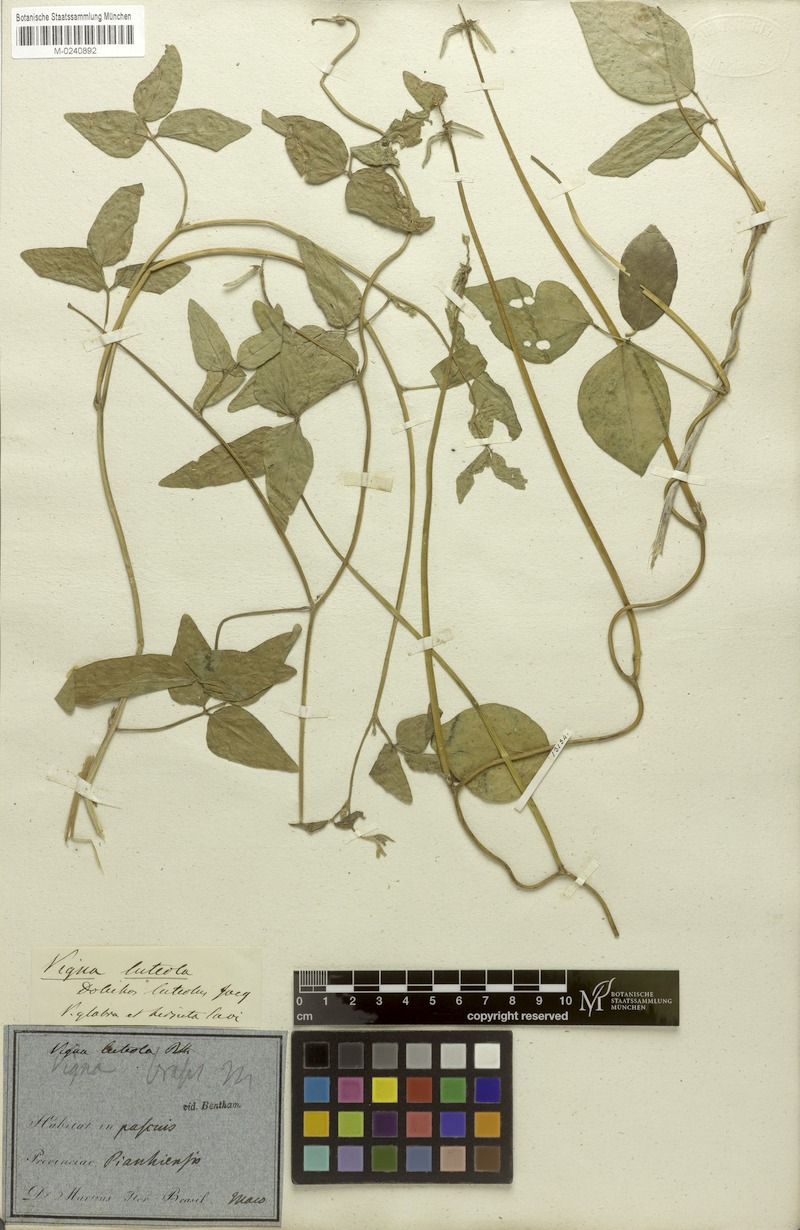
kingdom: Plantae
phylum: Tracheophyta
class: Magnoliopsida
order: Fabales
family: Fabaceae
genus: Vigna
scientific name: Vigna luteola
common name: Hairypod cowpea
